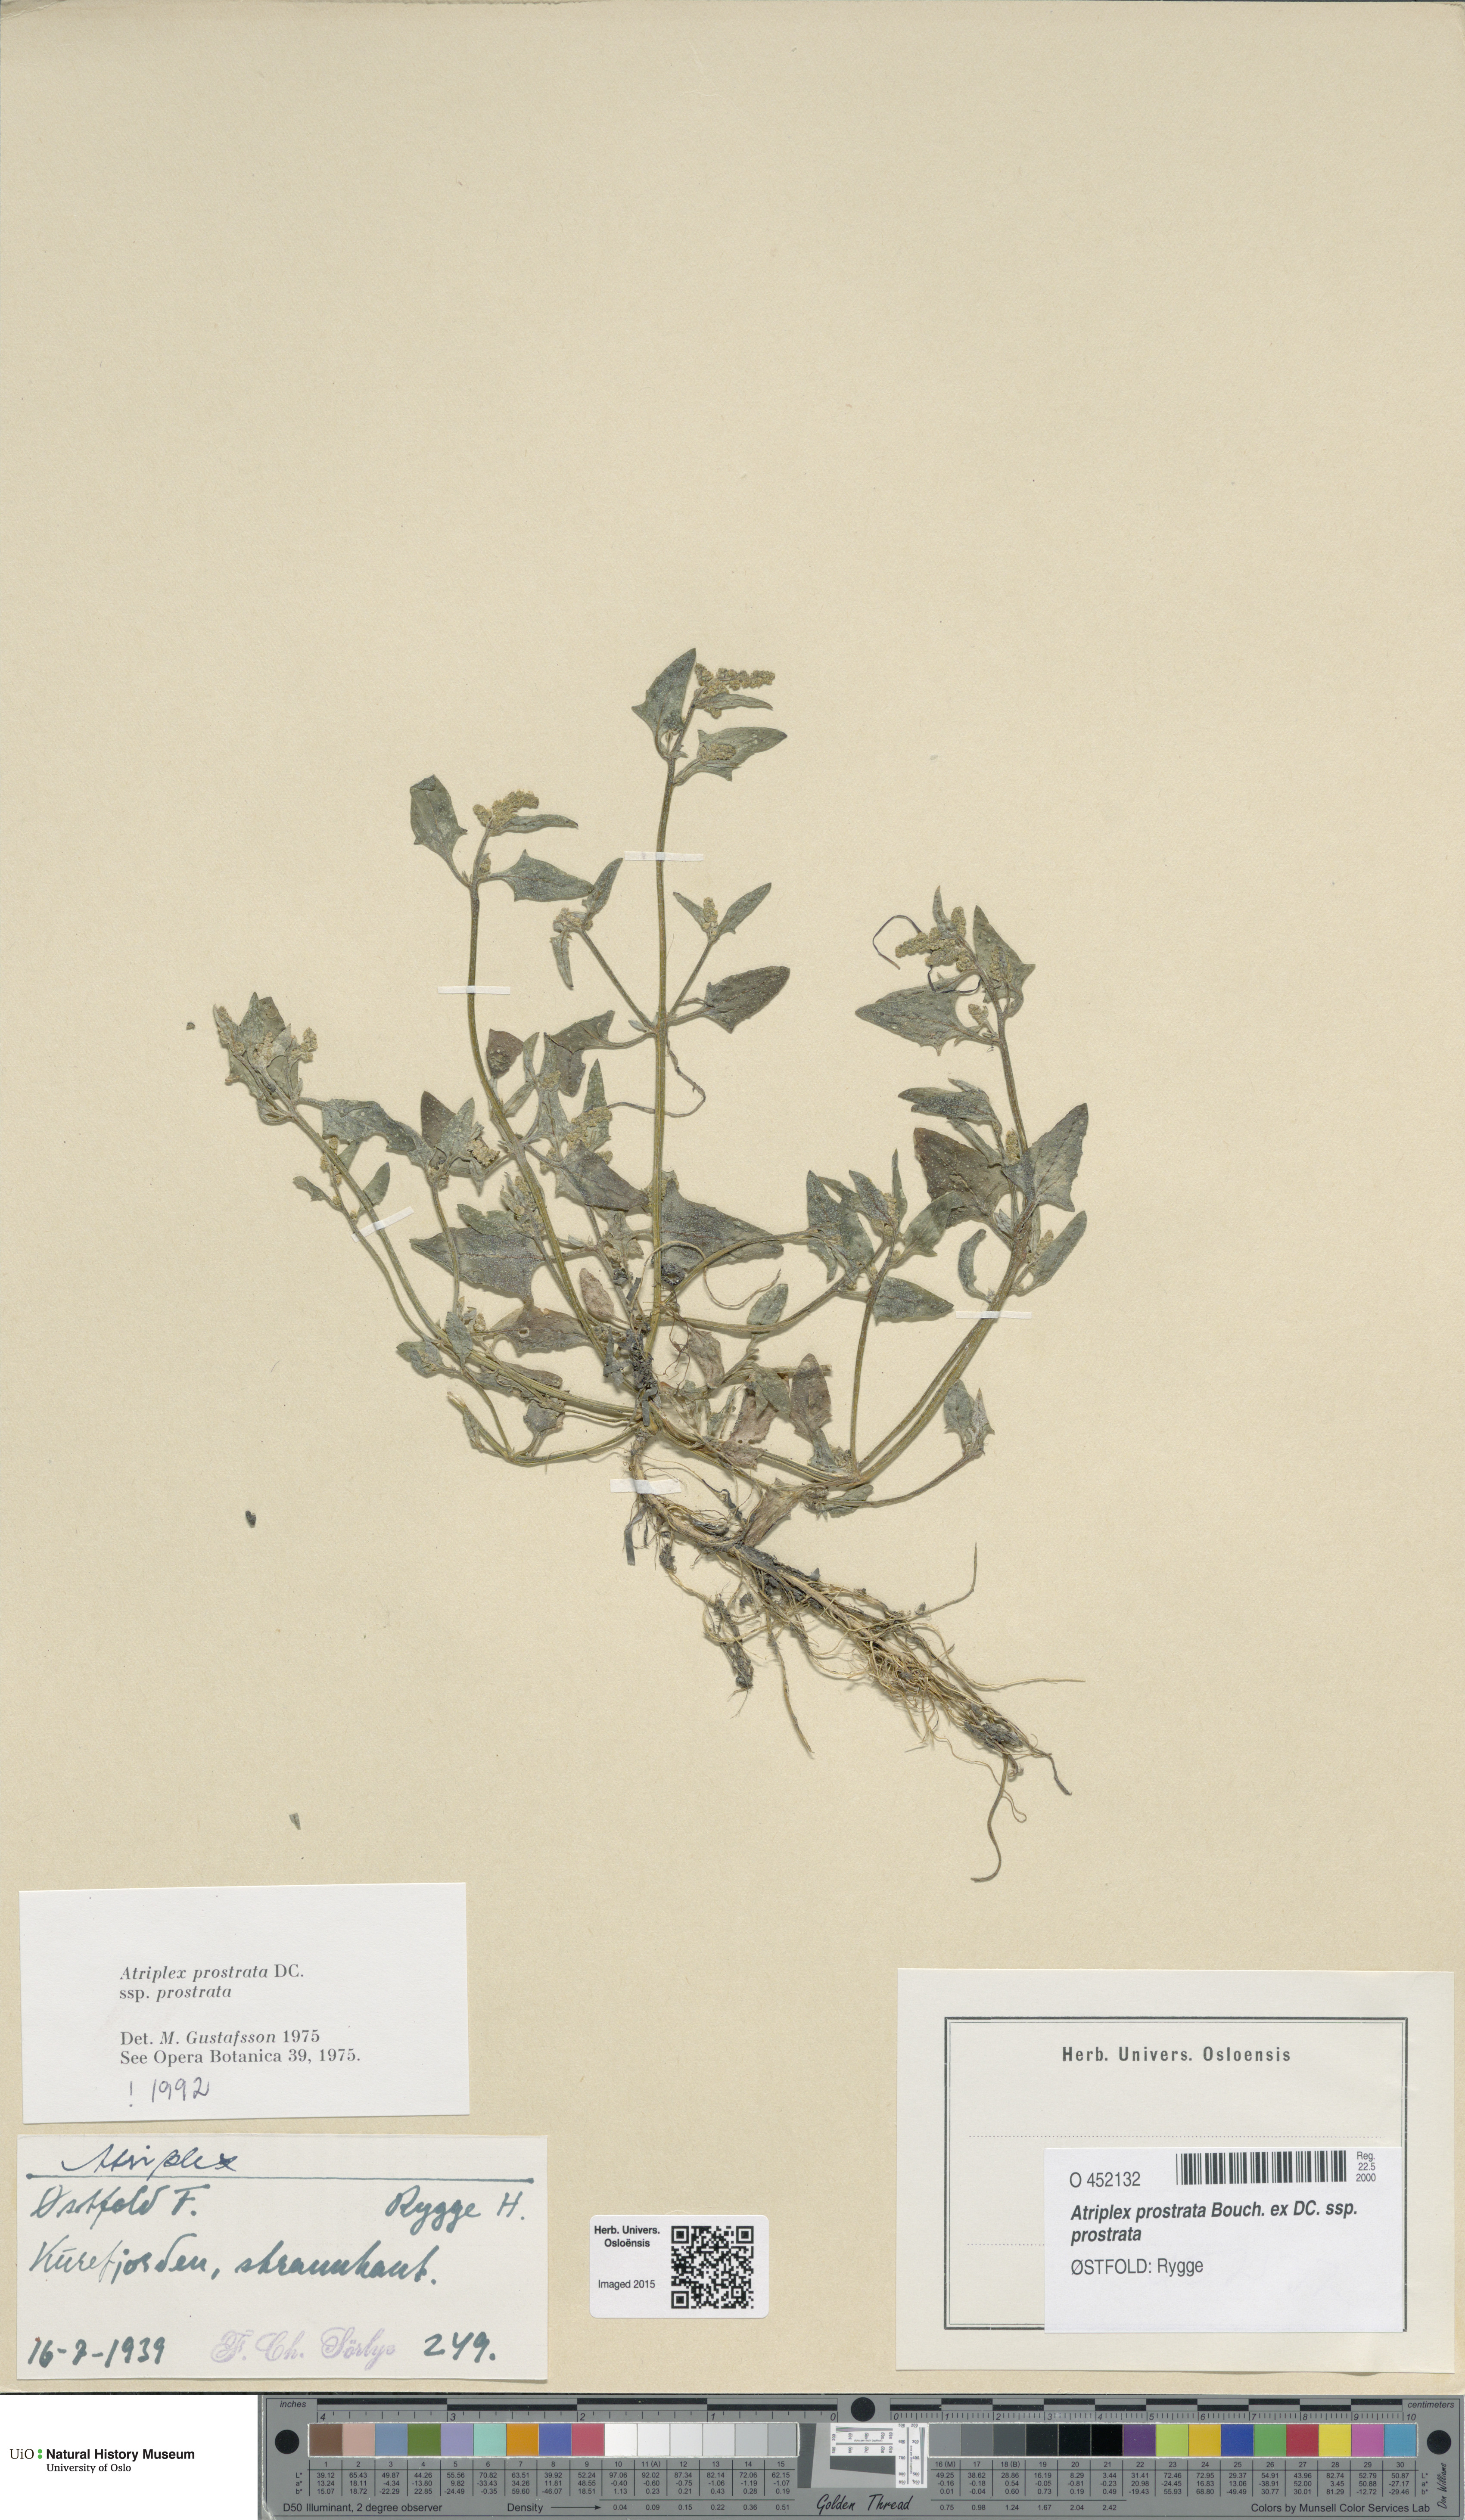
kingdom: Plantae
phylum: Tracheophyta
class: Magnoliopsida
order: Caryophyllales
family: Amaranthaceae
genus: Atriplex
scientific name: Atriplex prostrata
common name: Spear-leaved orache
